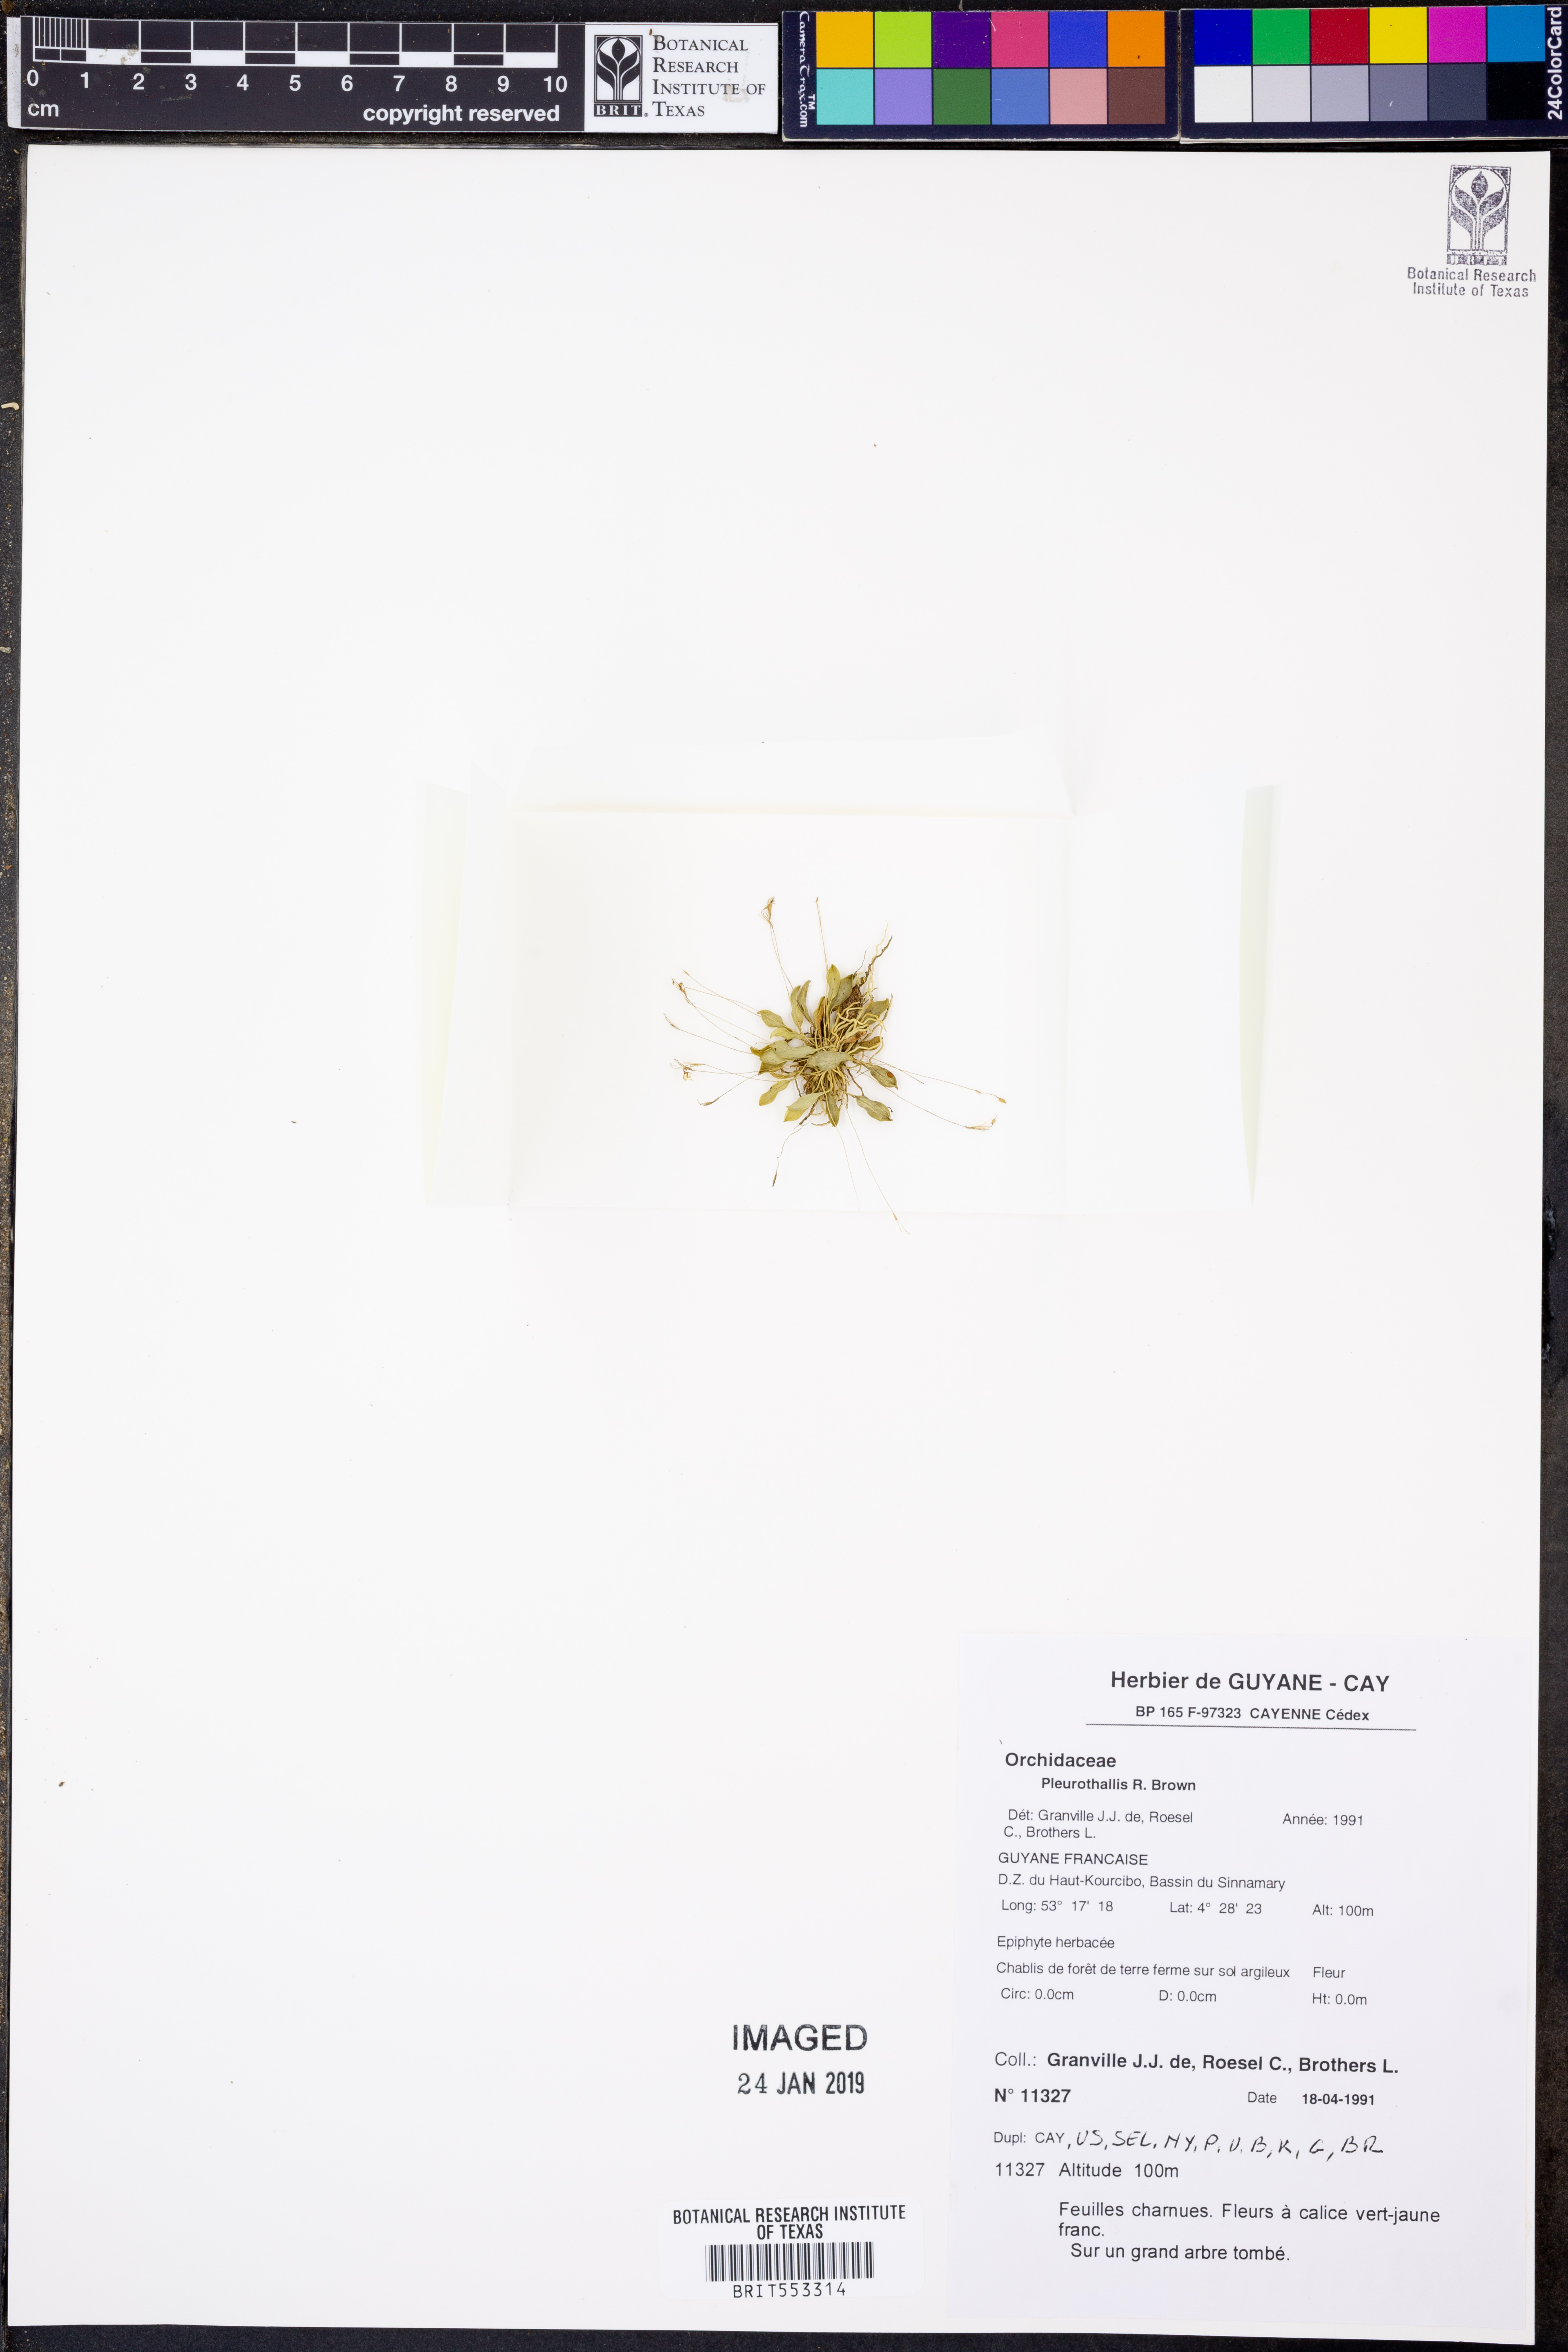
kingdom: Plantae
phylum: Tracheophyta
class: Liliopsida
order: Asparagales
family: Orchidaceae
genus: Pleurothallis
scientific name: Pleurothallis
